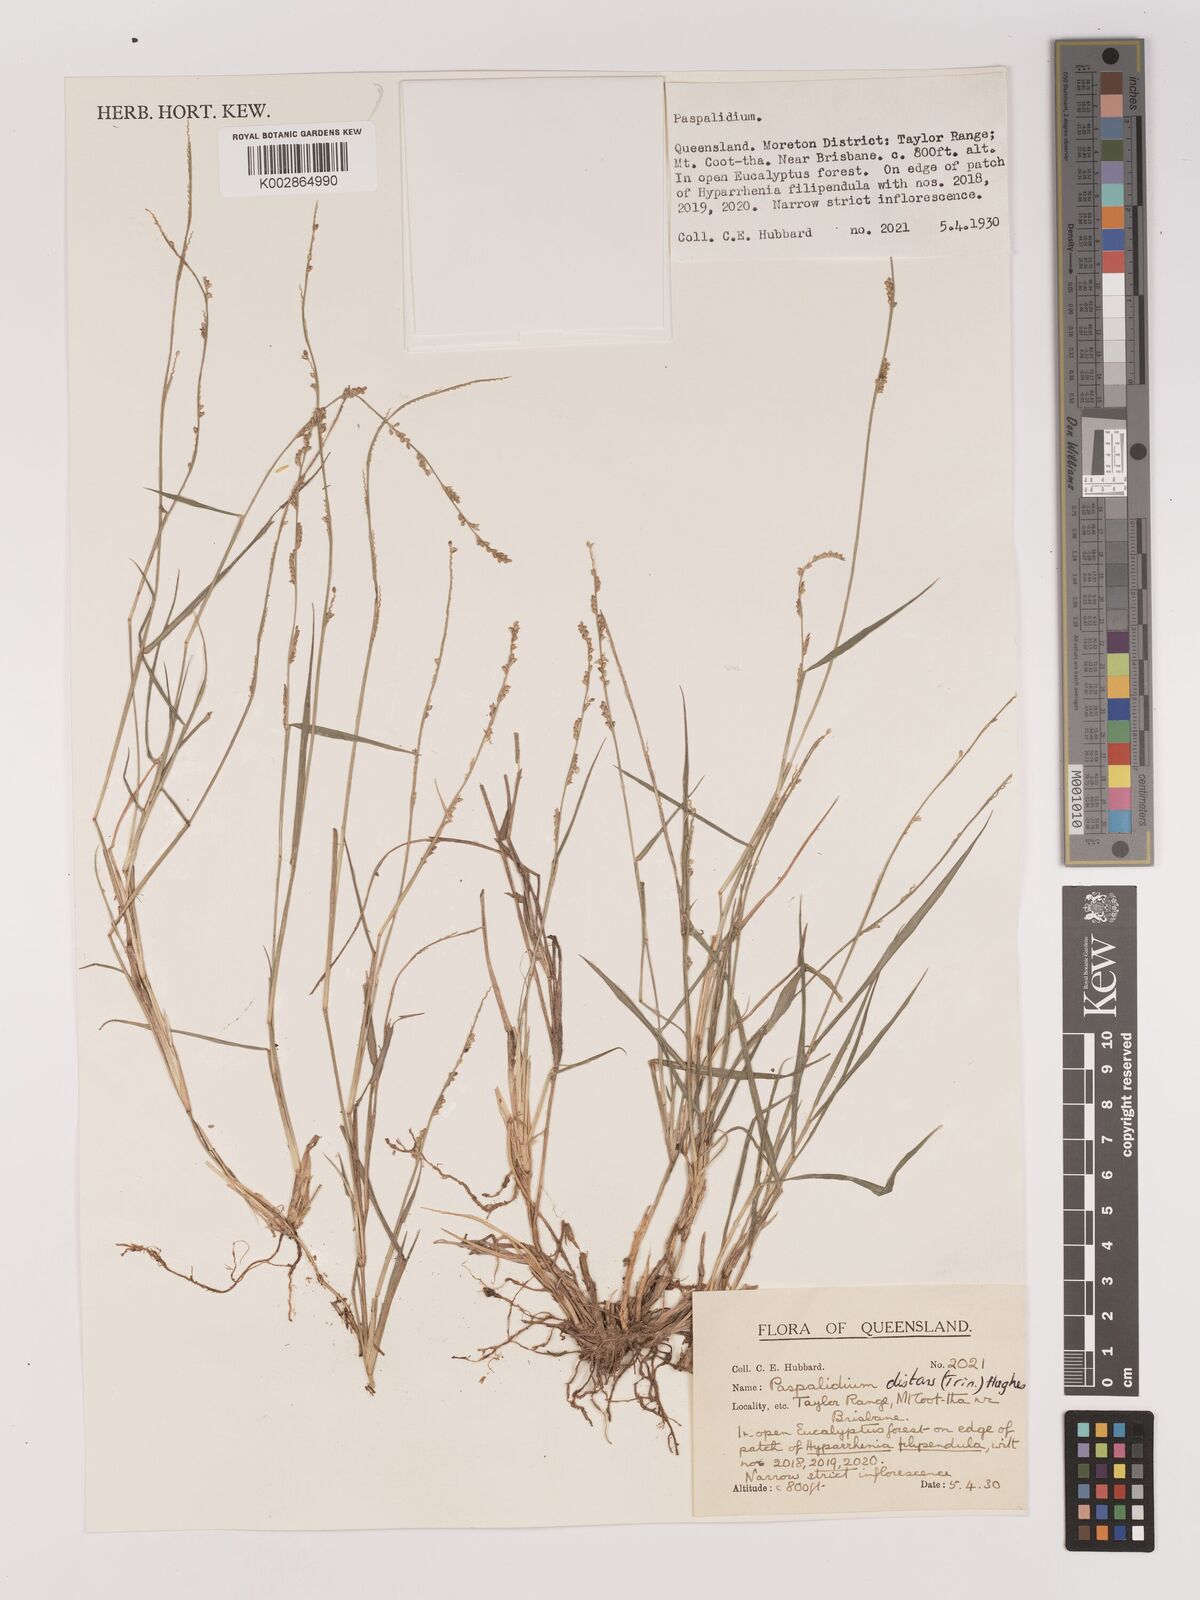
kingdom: Plantae
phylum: Tracheophyta
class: Liliopsida
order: Poales
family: Poaceae
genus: Setaria
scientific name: Setaria
